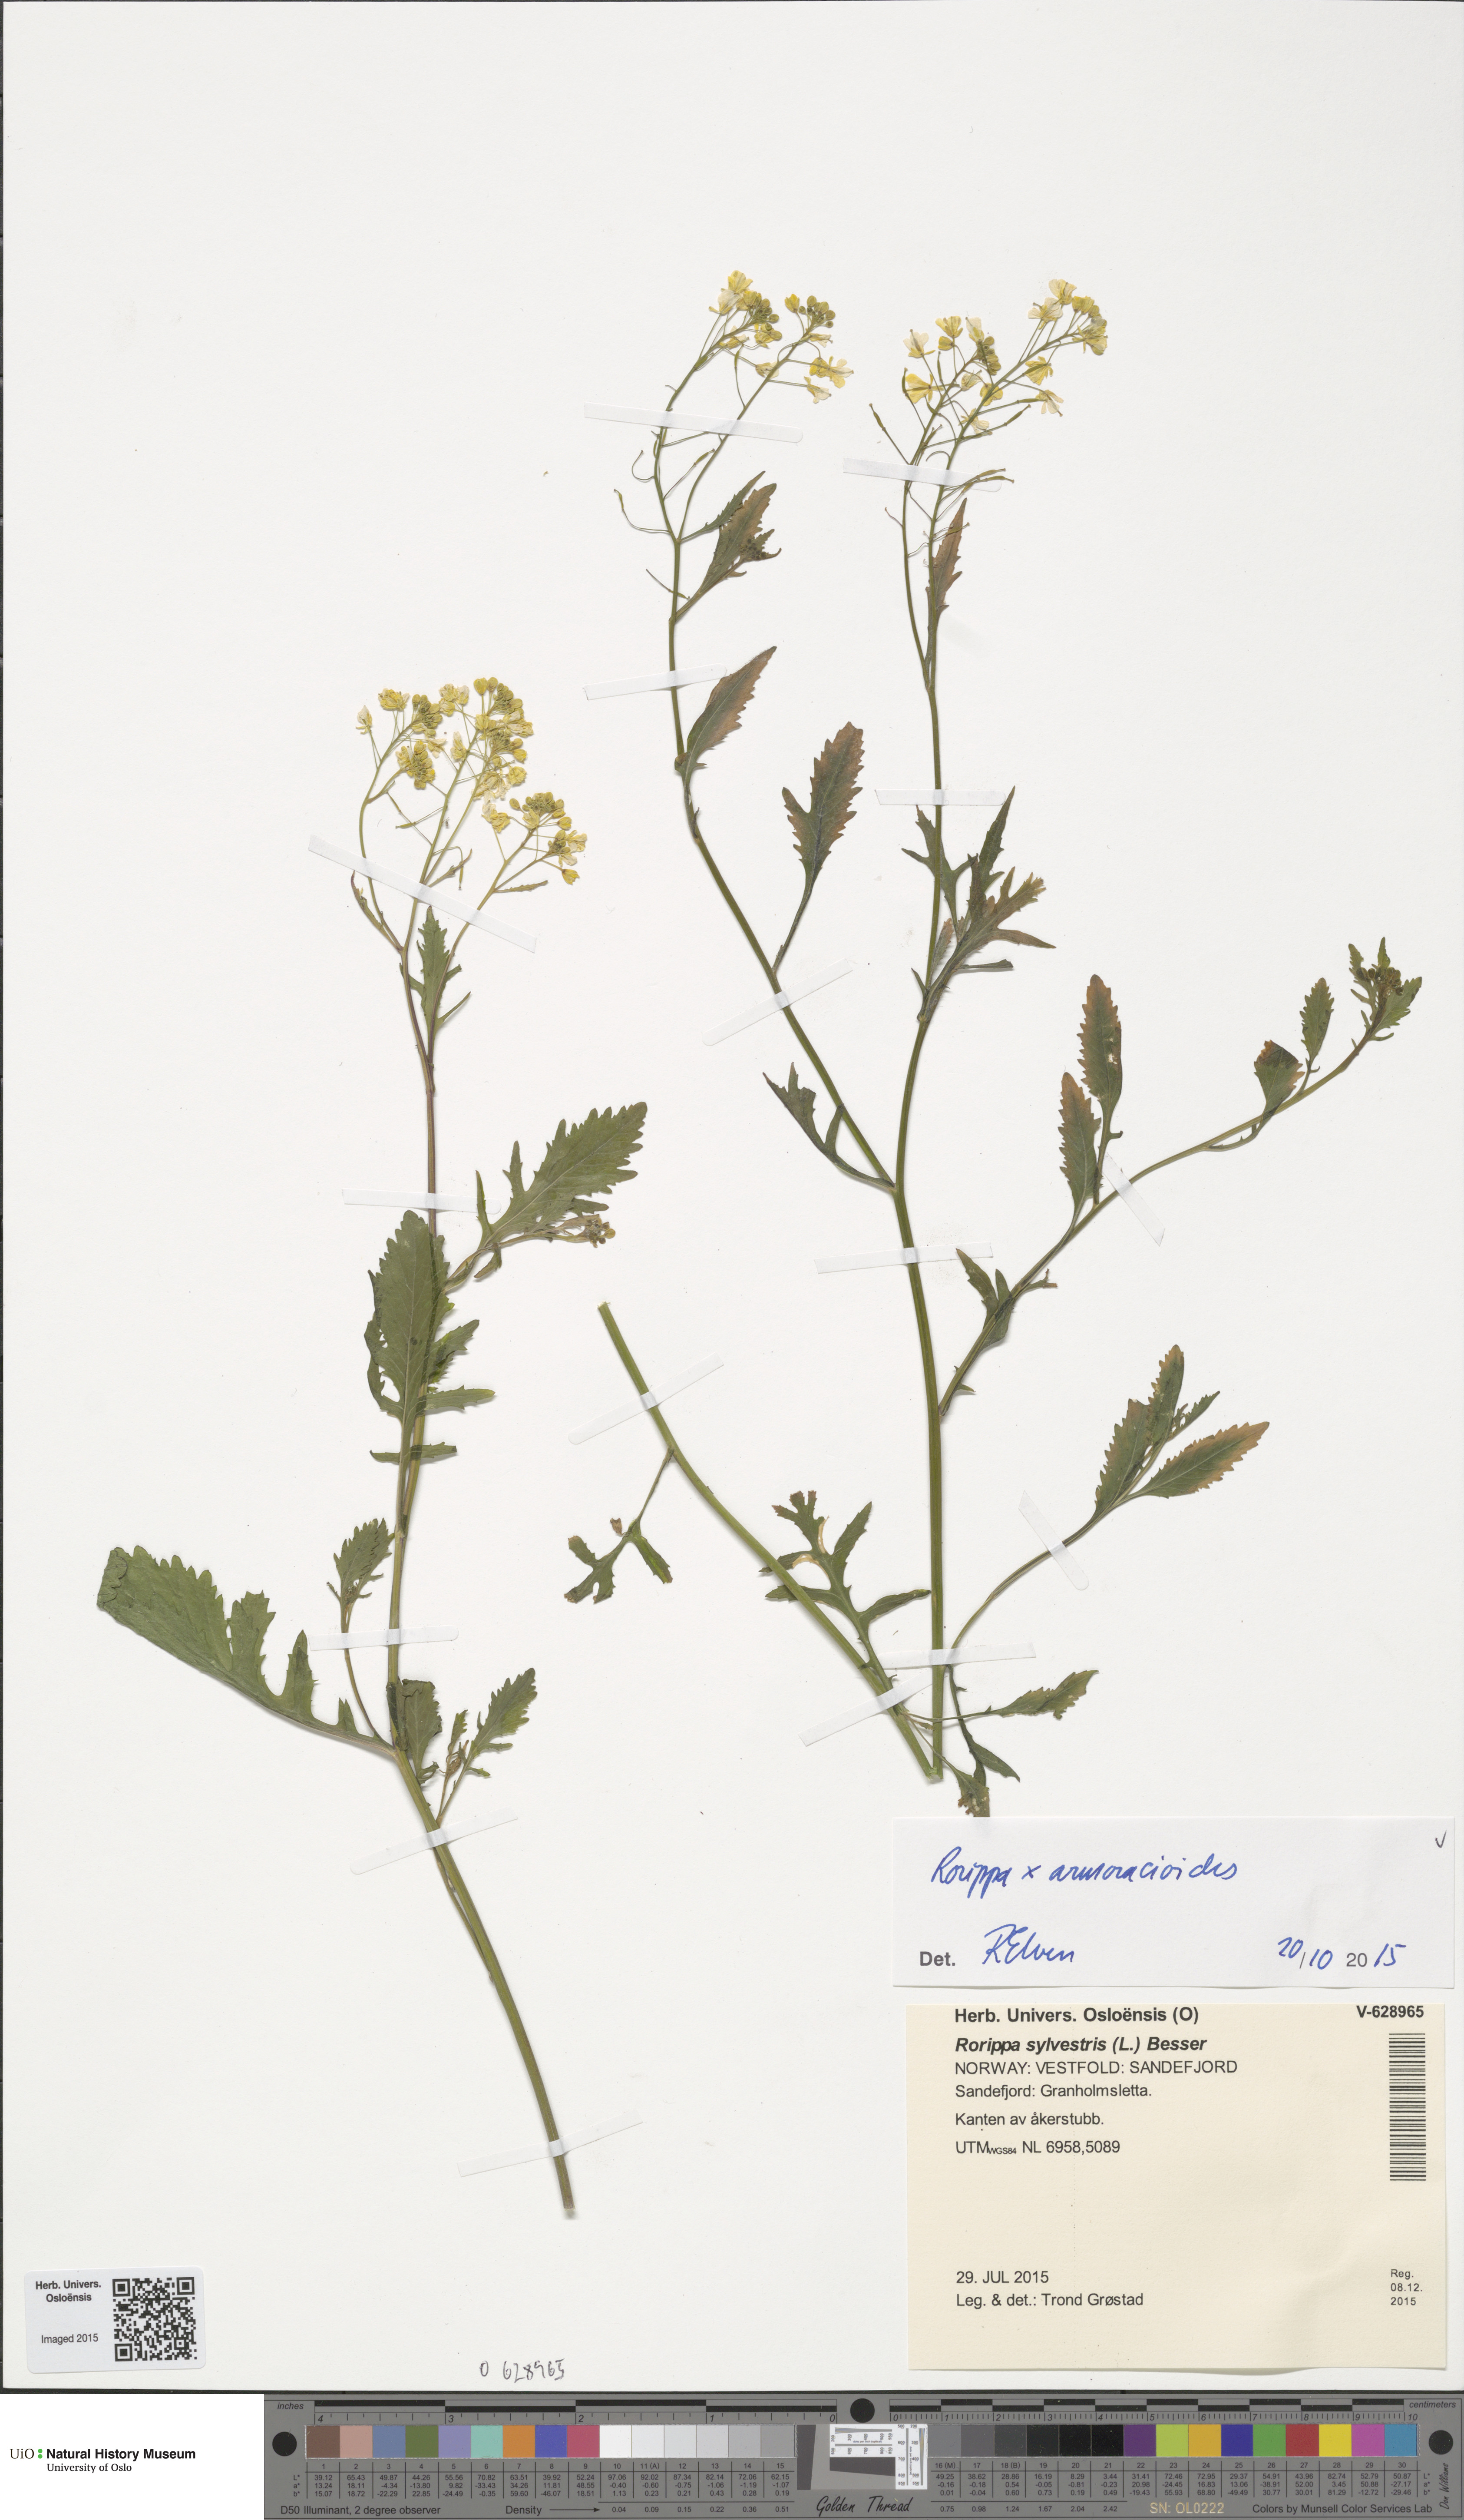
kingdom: Plantae
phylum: Tracheophyta
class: Magnoliopsida
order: Brassicales
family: Brassicaceae
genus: Rorippa
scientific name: Rorippa anceps
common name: Rorippa
